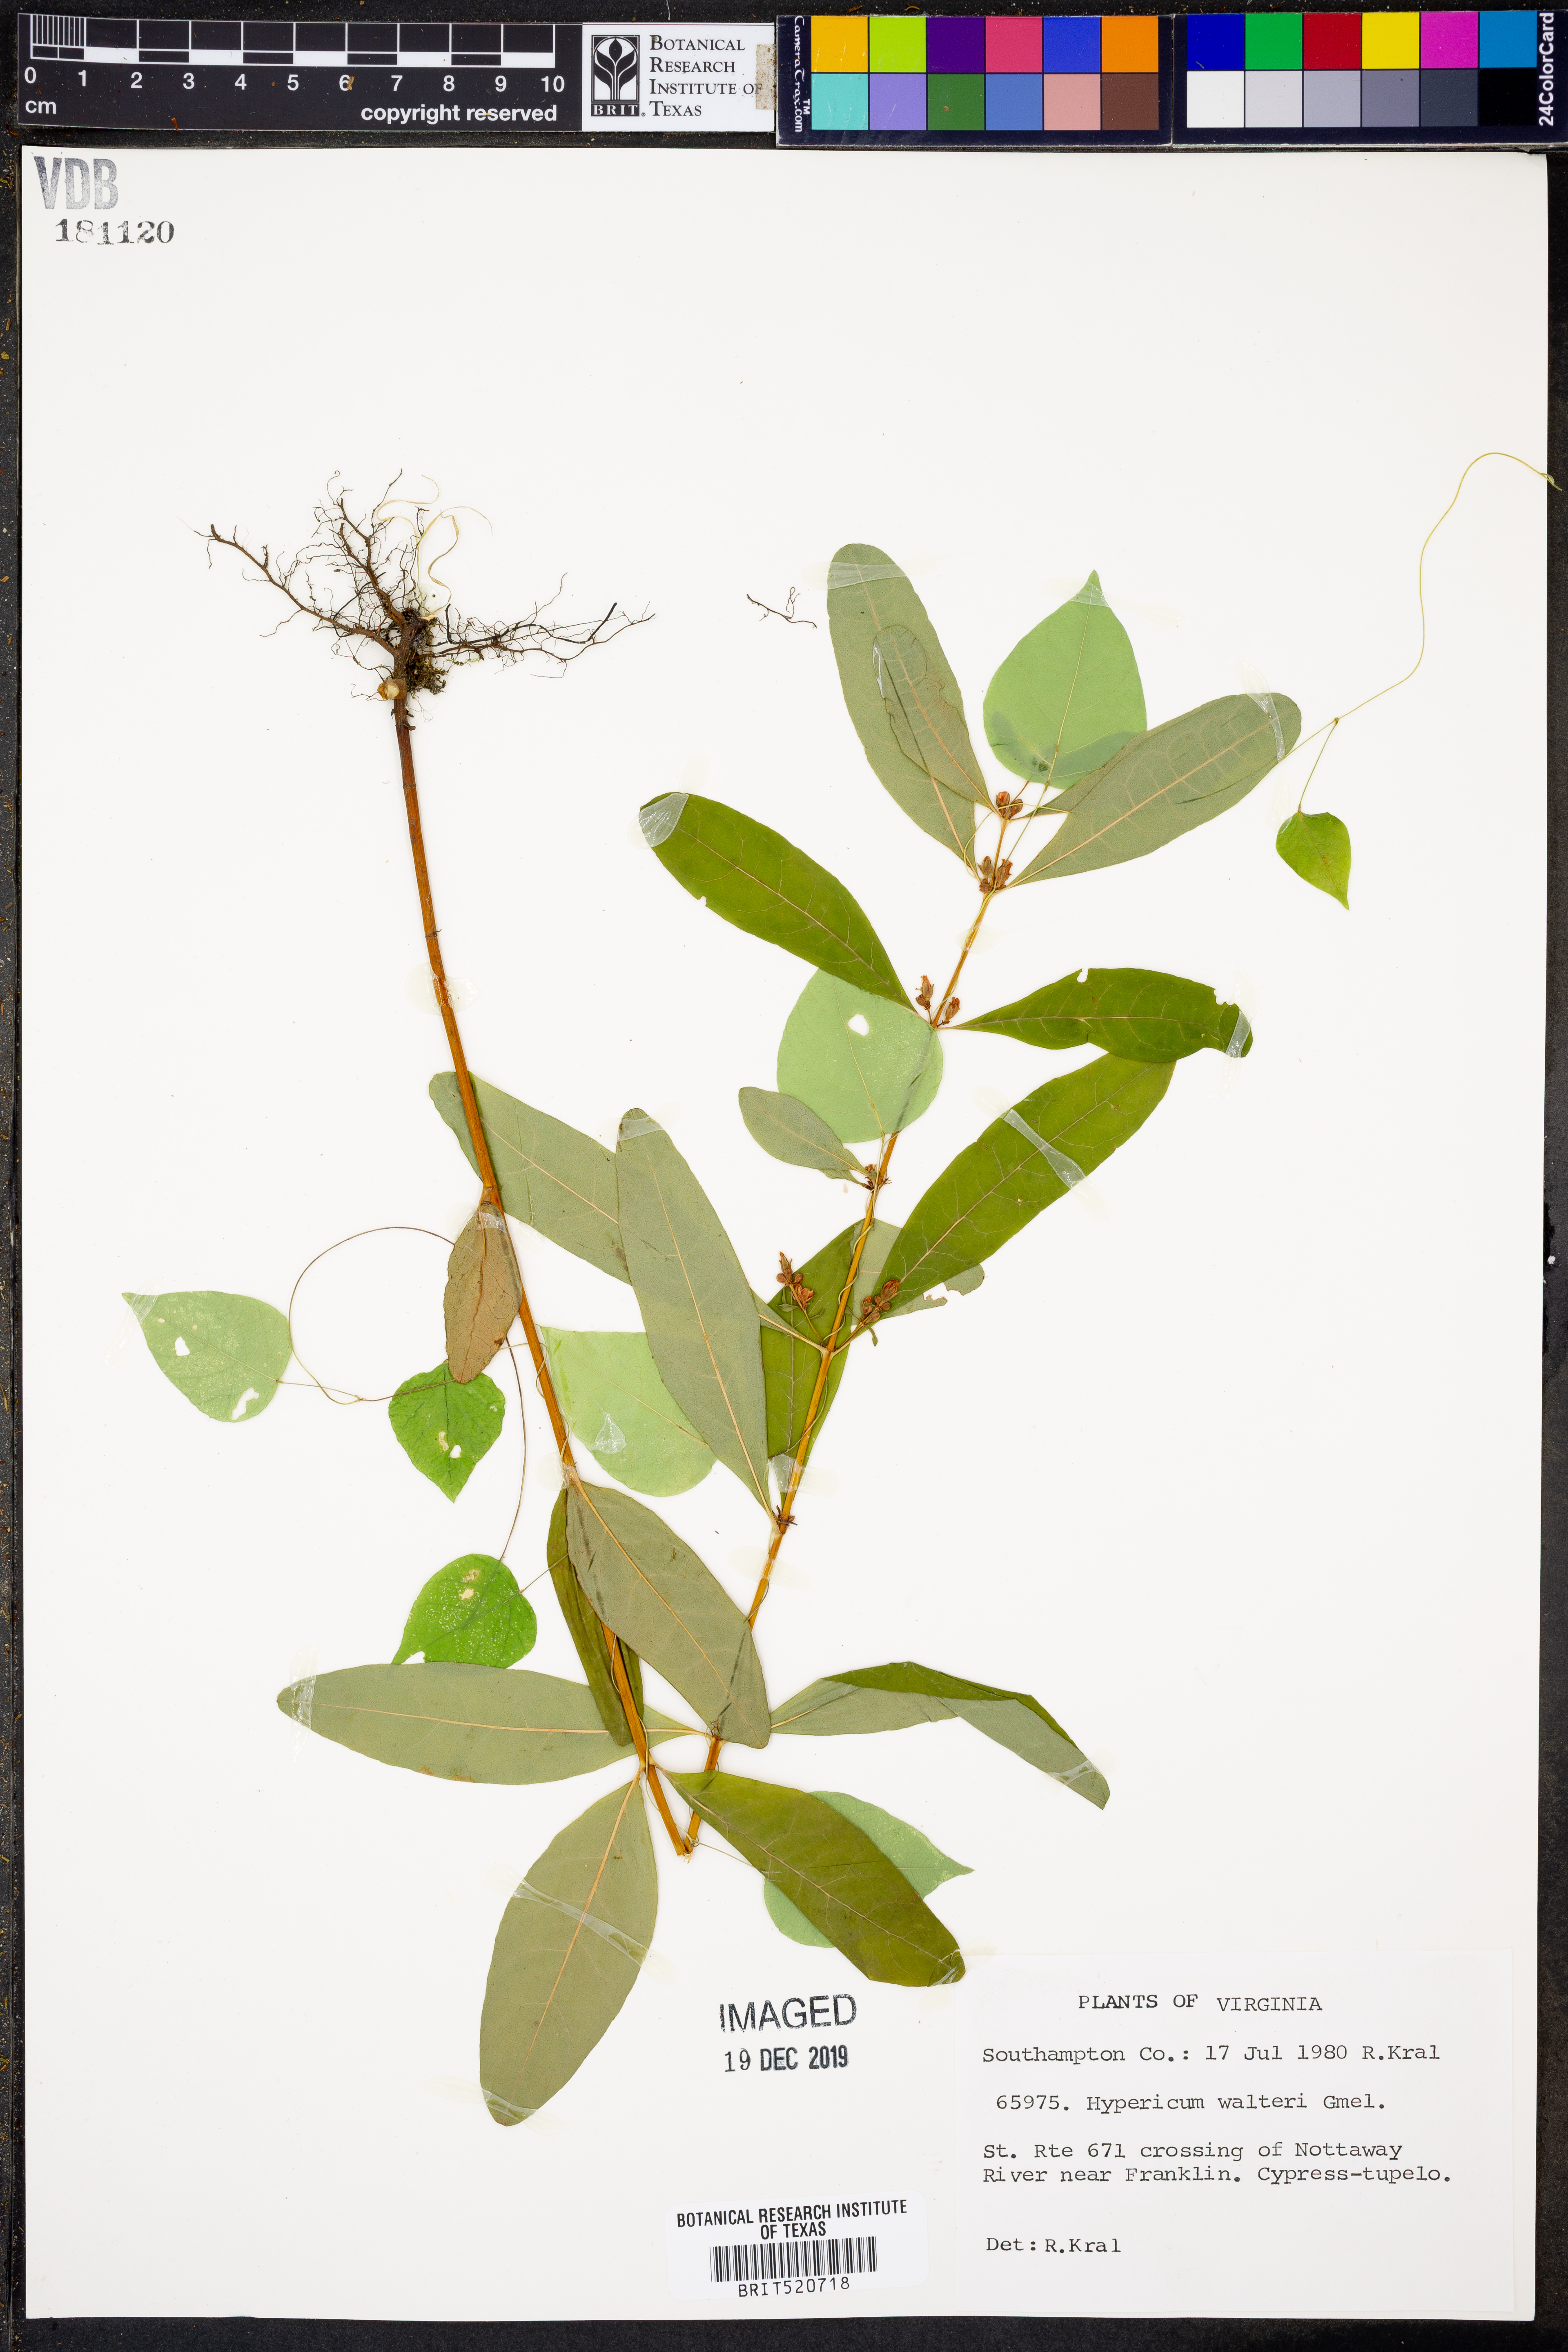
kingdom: Plantae
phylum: Tracheophyta
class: Magnoliopsida
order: Malpighiales
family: Hypericaceae
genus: Triadenum
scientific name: Triadenum walteri
